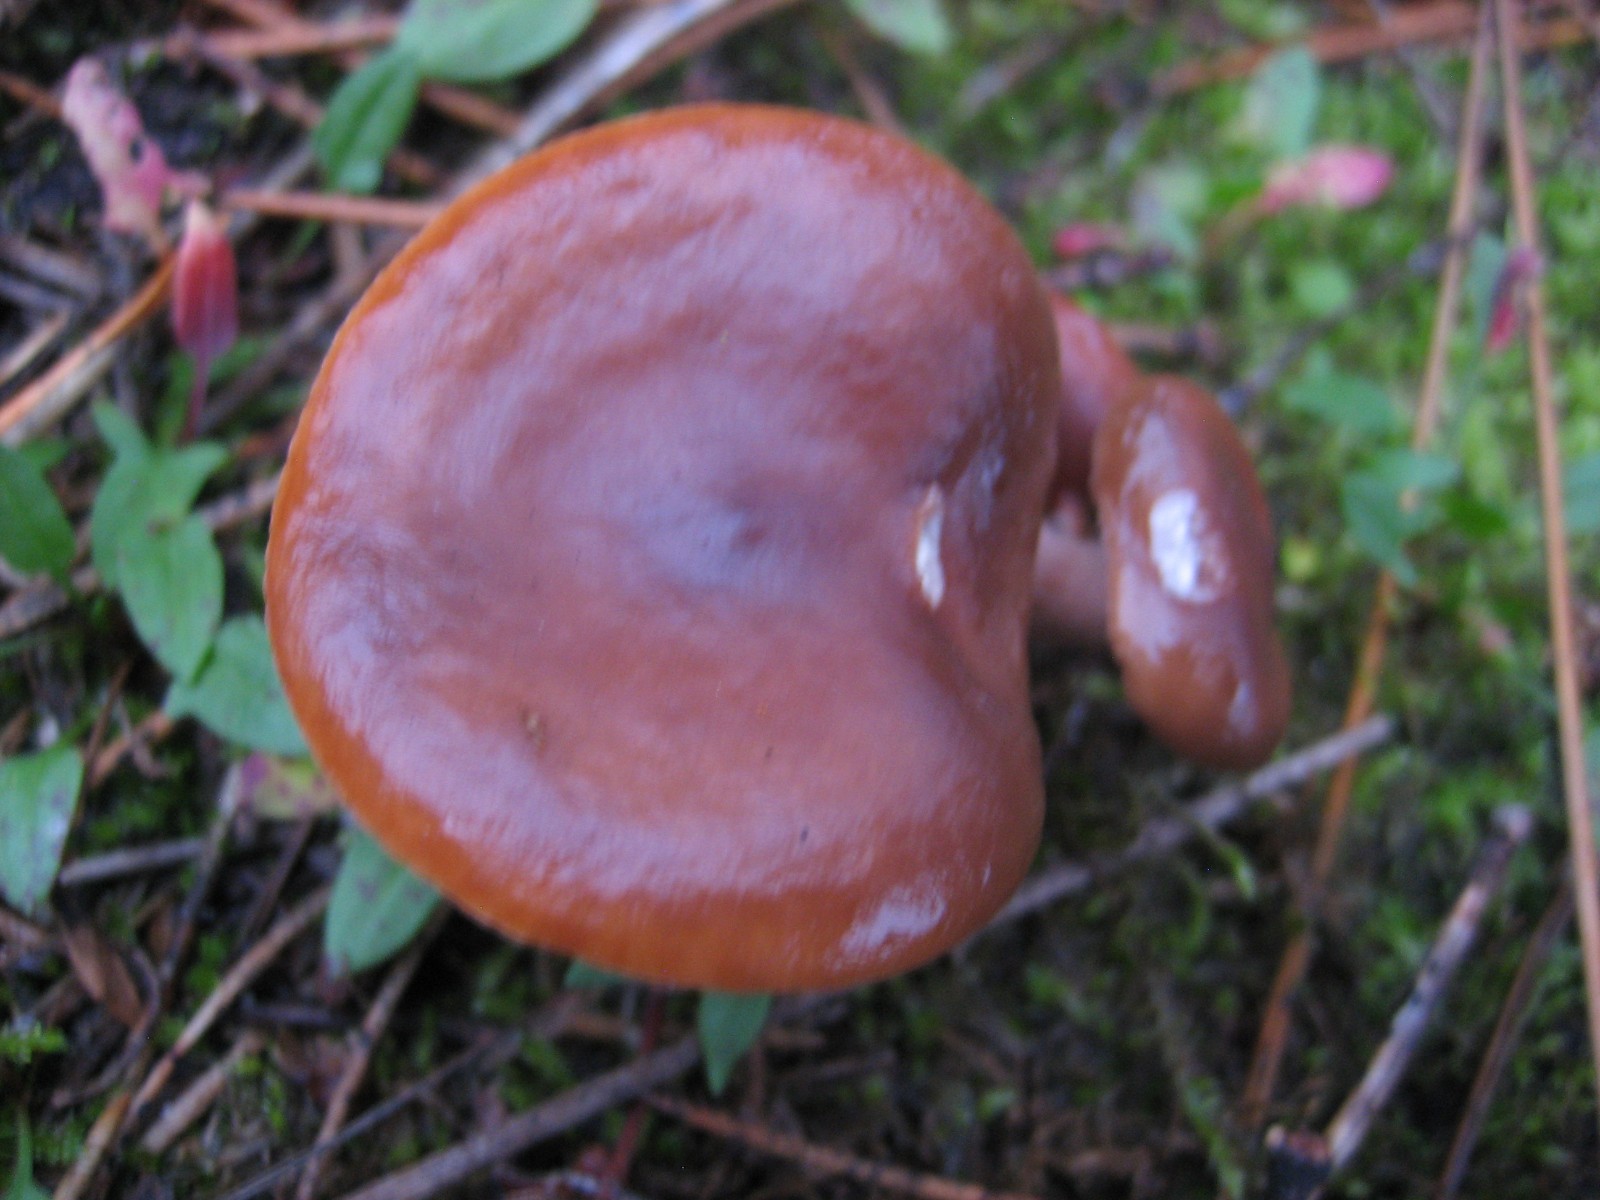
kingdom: Fungi
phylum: Basidiomycota
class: Agaricomycetes
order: Russulales
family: Russulaceae
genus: Lactarius
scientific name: Lactarius
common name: mælkehat
